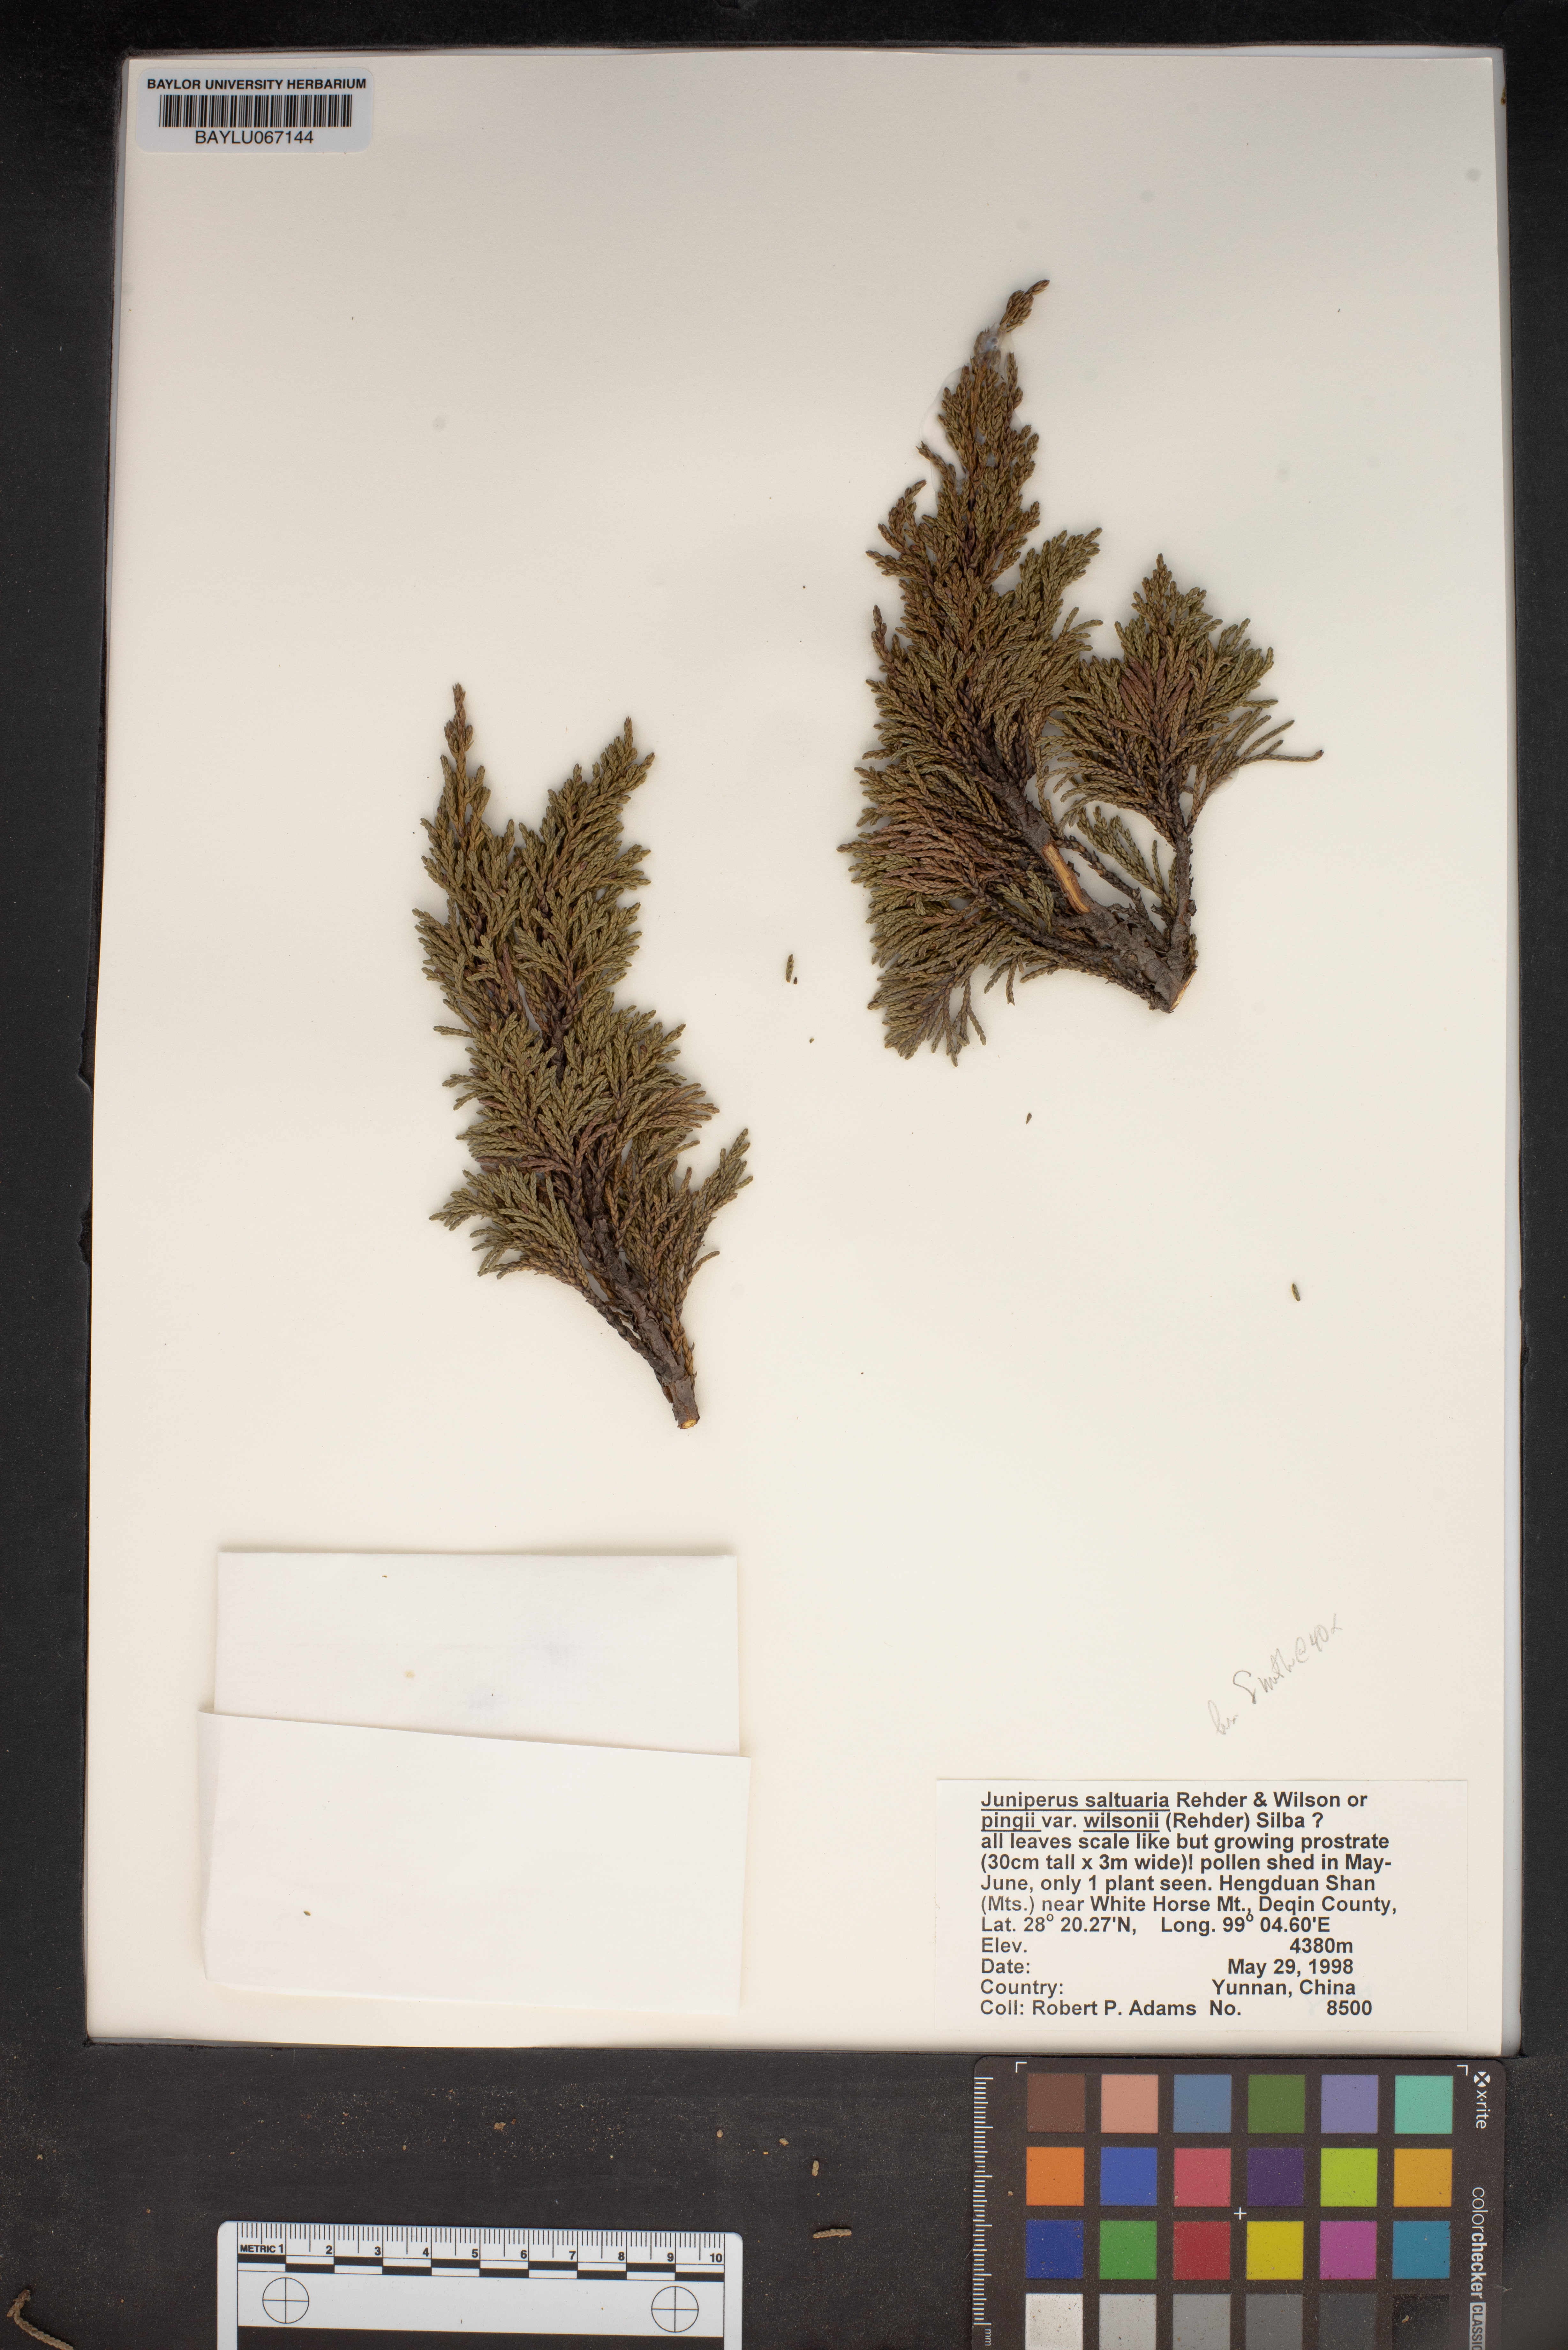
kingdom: Plantae
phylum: Tracheophyta
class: Pinopsida
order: Pinales
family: Cupressaceae
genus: Juniperus
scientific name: Juniperus saltuaria
